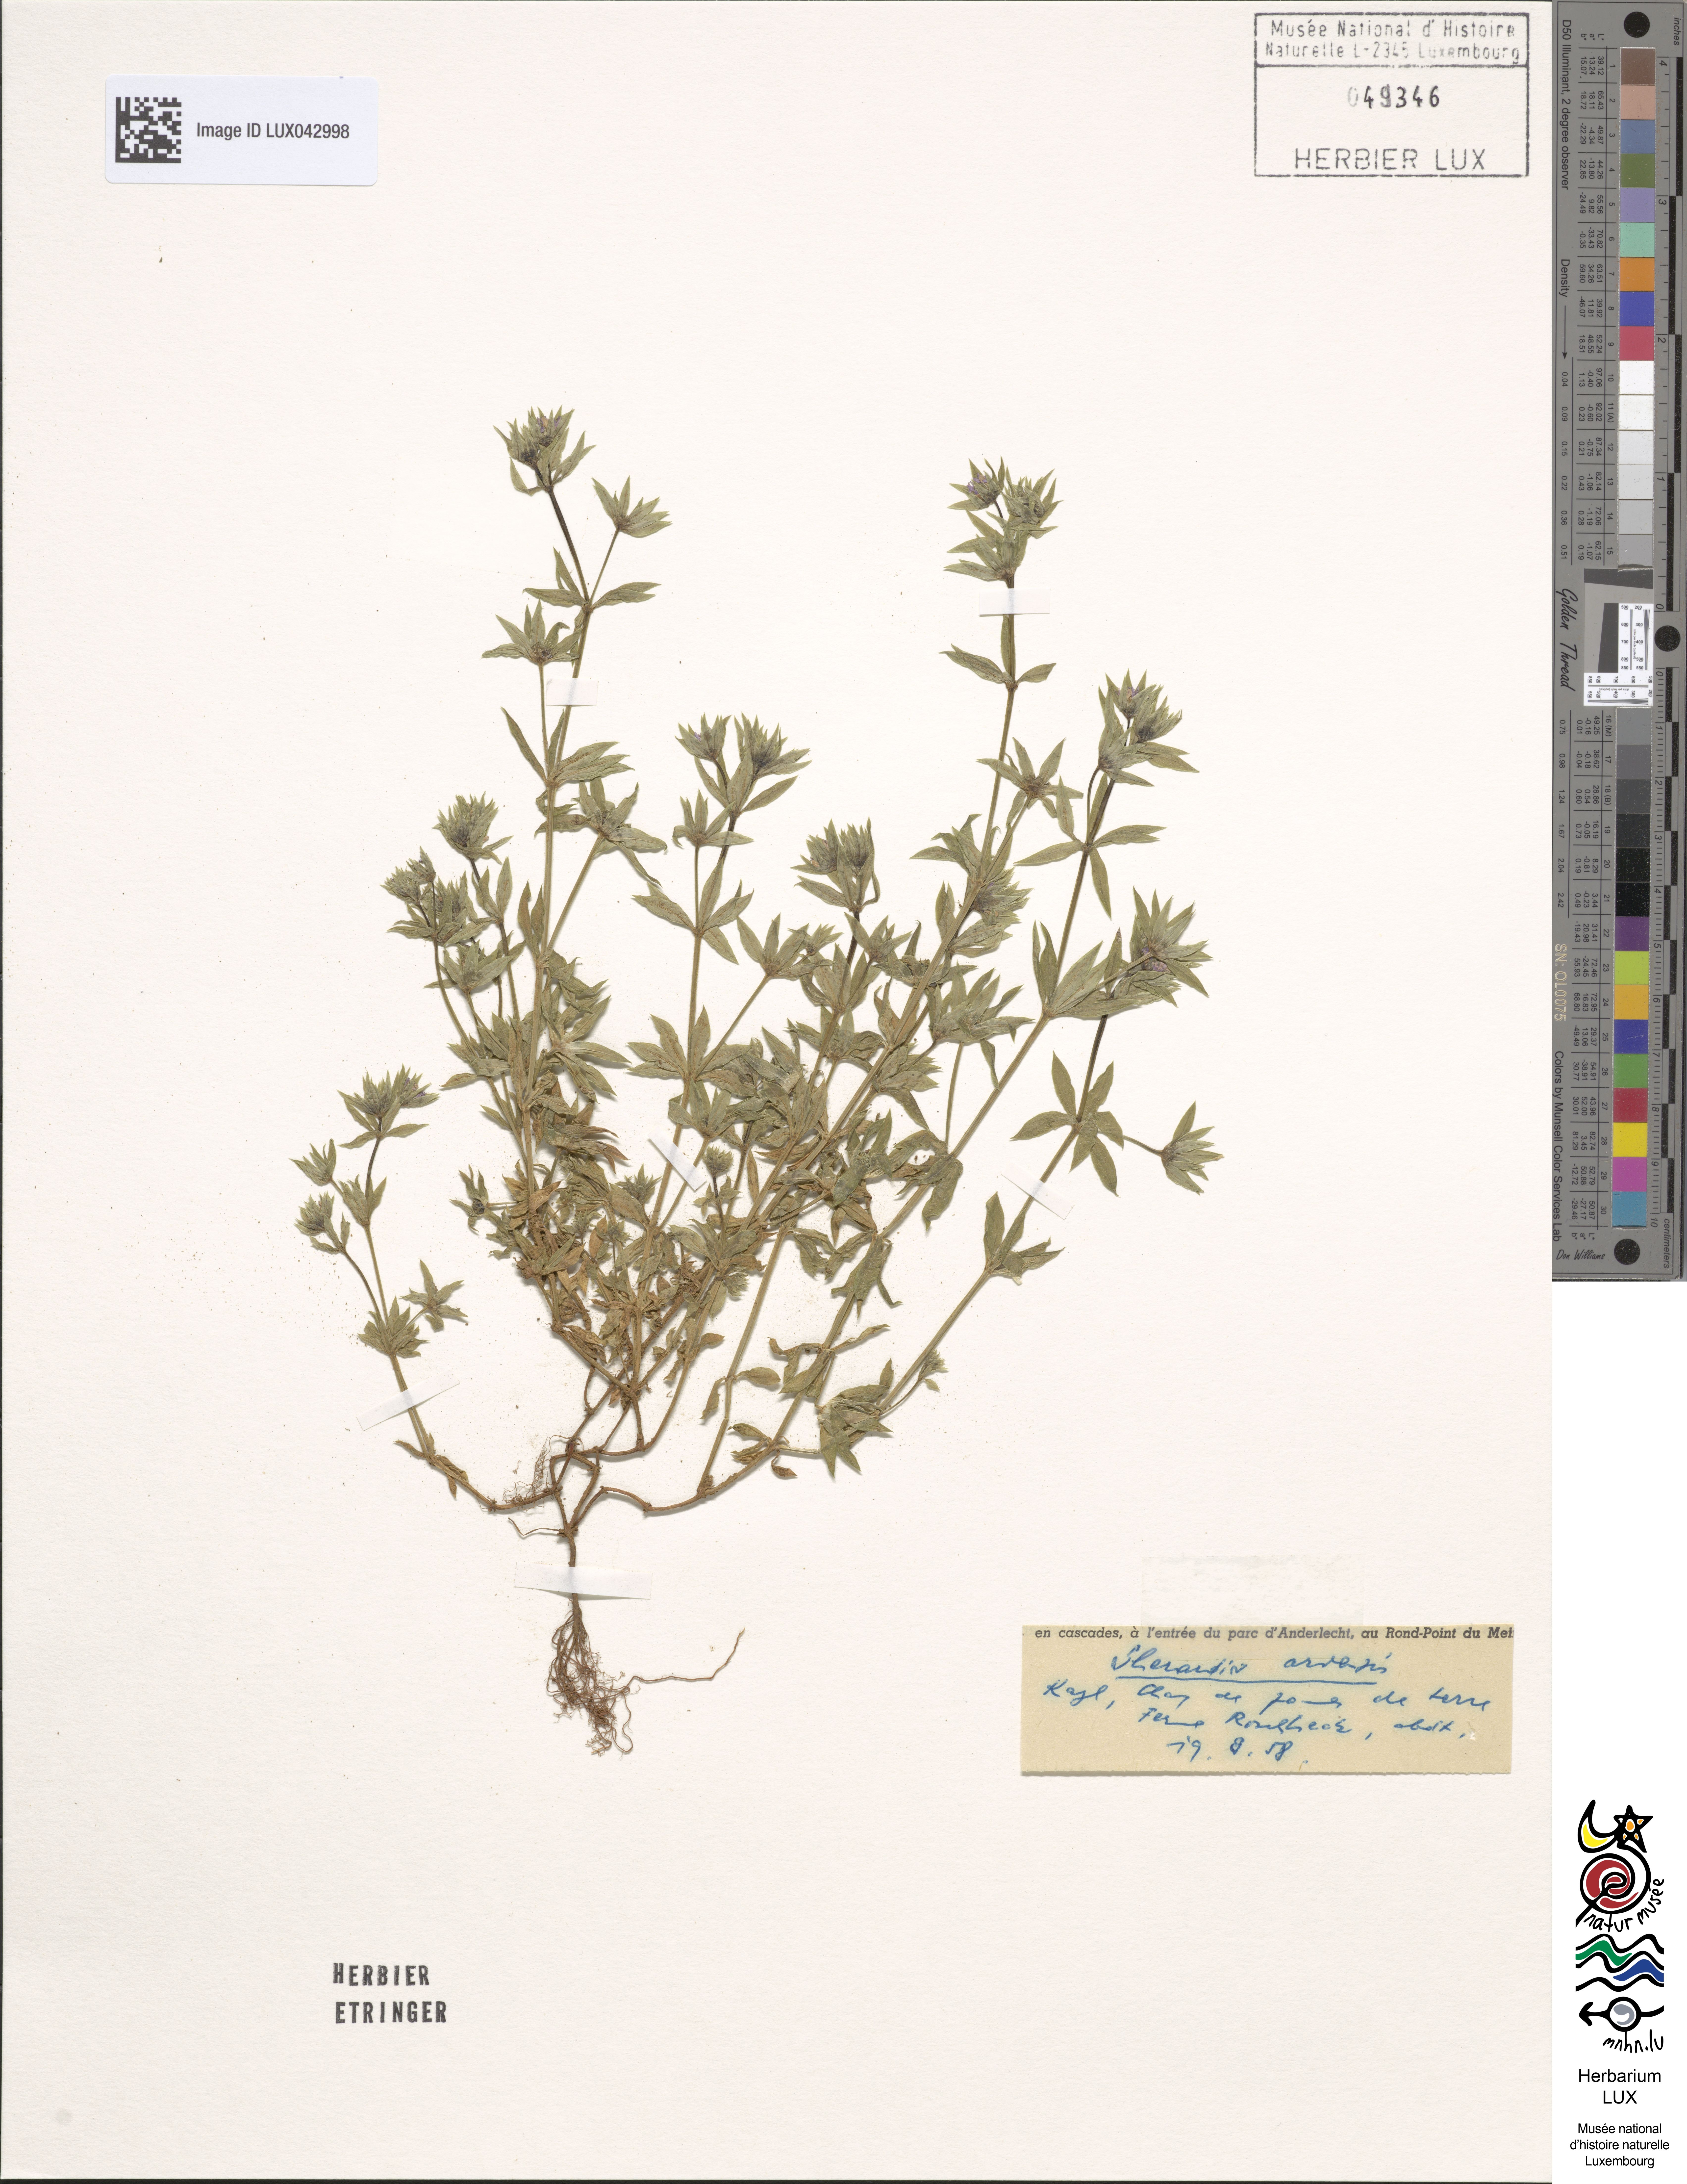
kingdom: Plantae
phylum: Tracheophyta
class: Magnoliopsida
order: Gentianales
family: Rubiaceae
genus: Sherardia
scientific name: Sherardia arvensis
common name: Field madder
